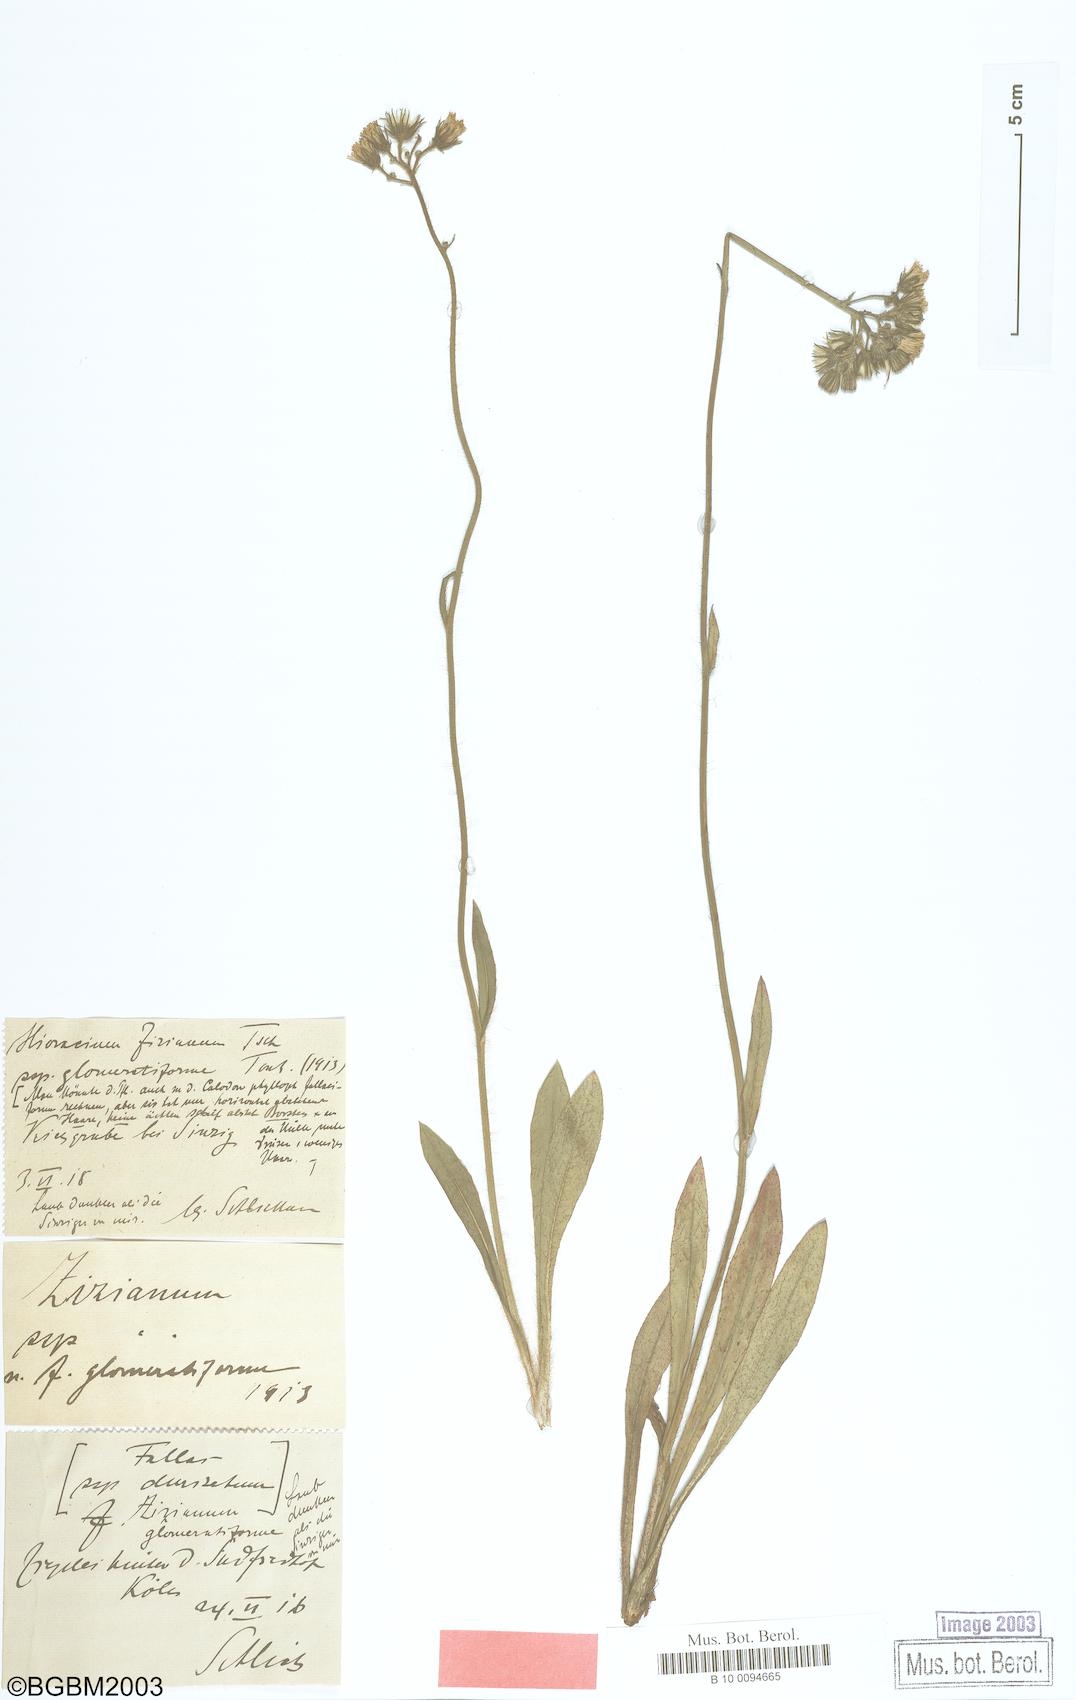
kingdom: Plantae
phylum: Tracheophyta
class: Magnoliopsida
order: Asterales
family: Asteraceae
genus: Pilosella
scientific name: Pilosella ziziana
